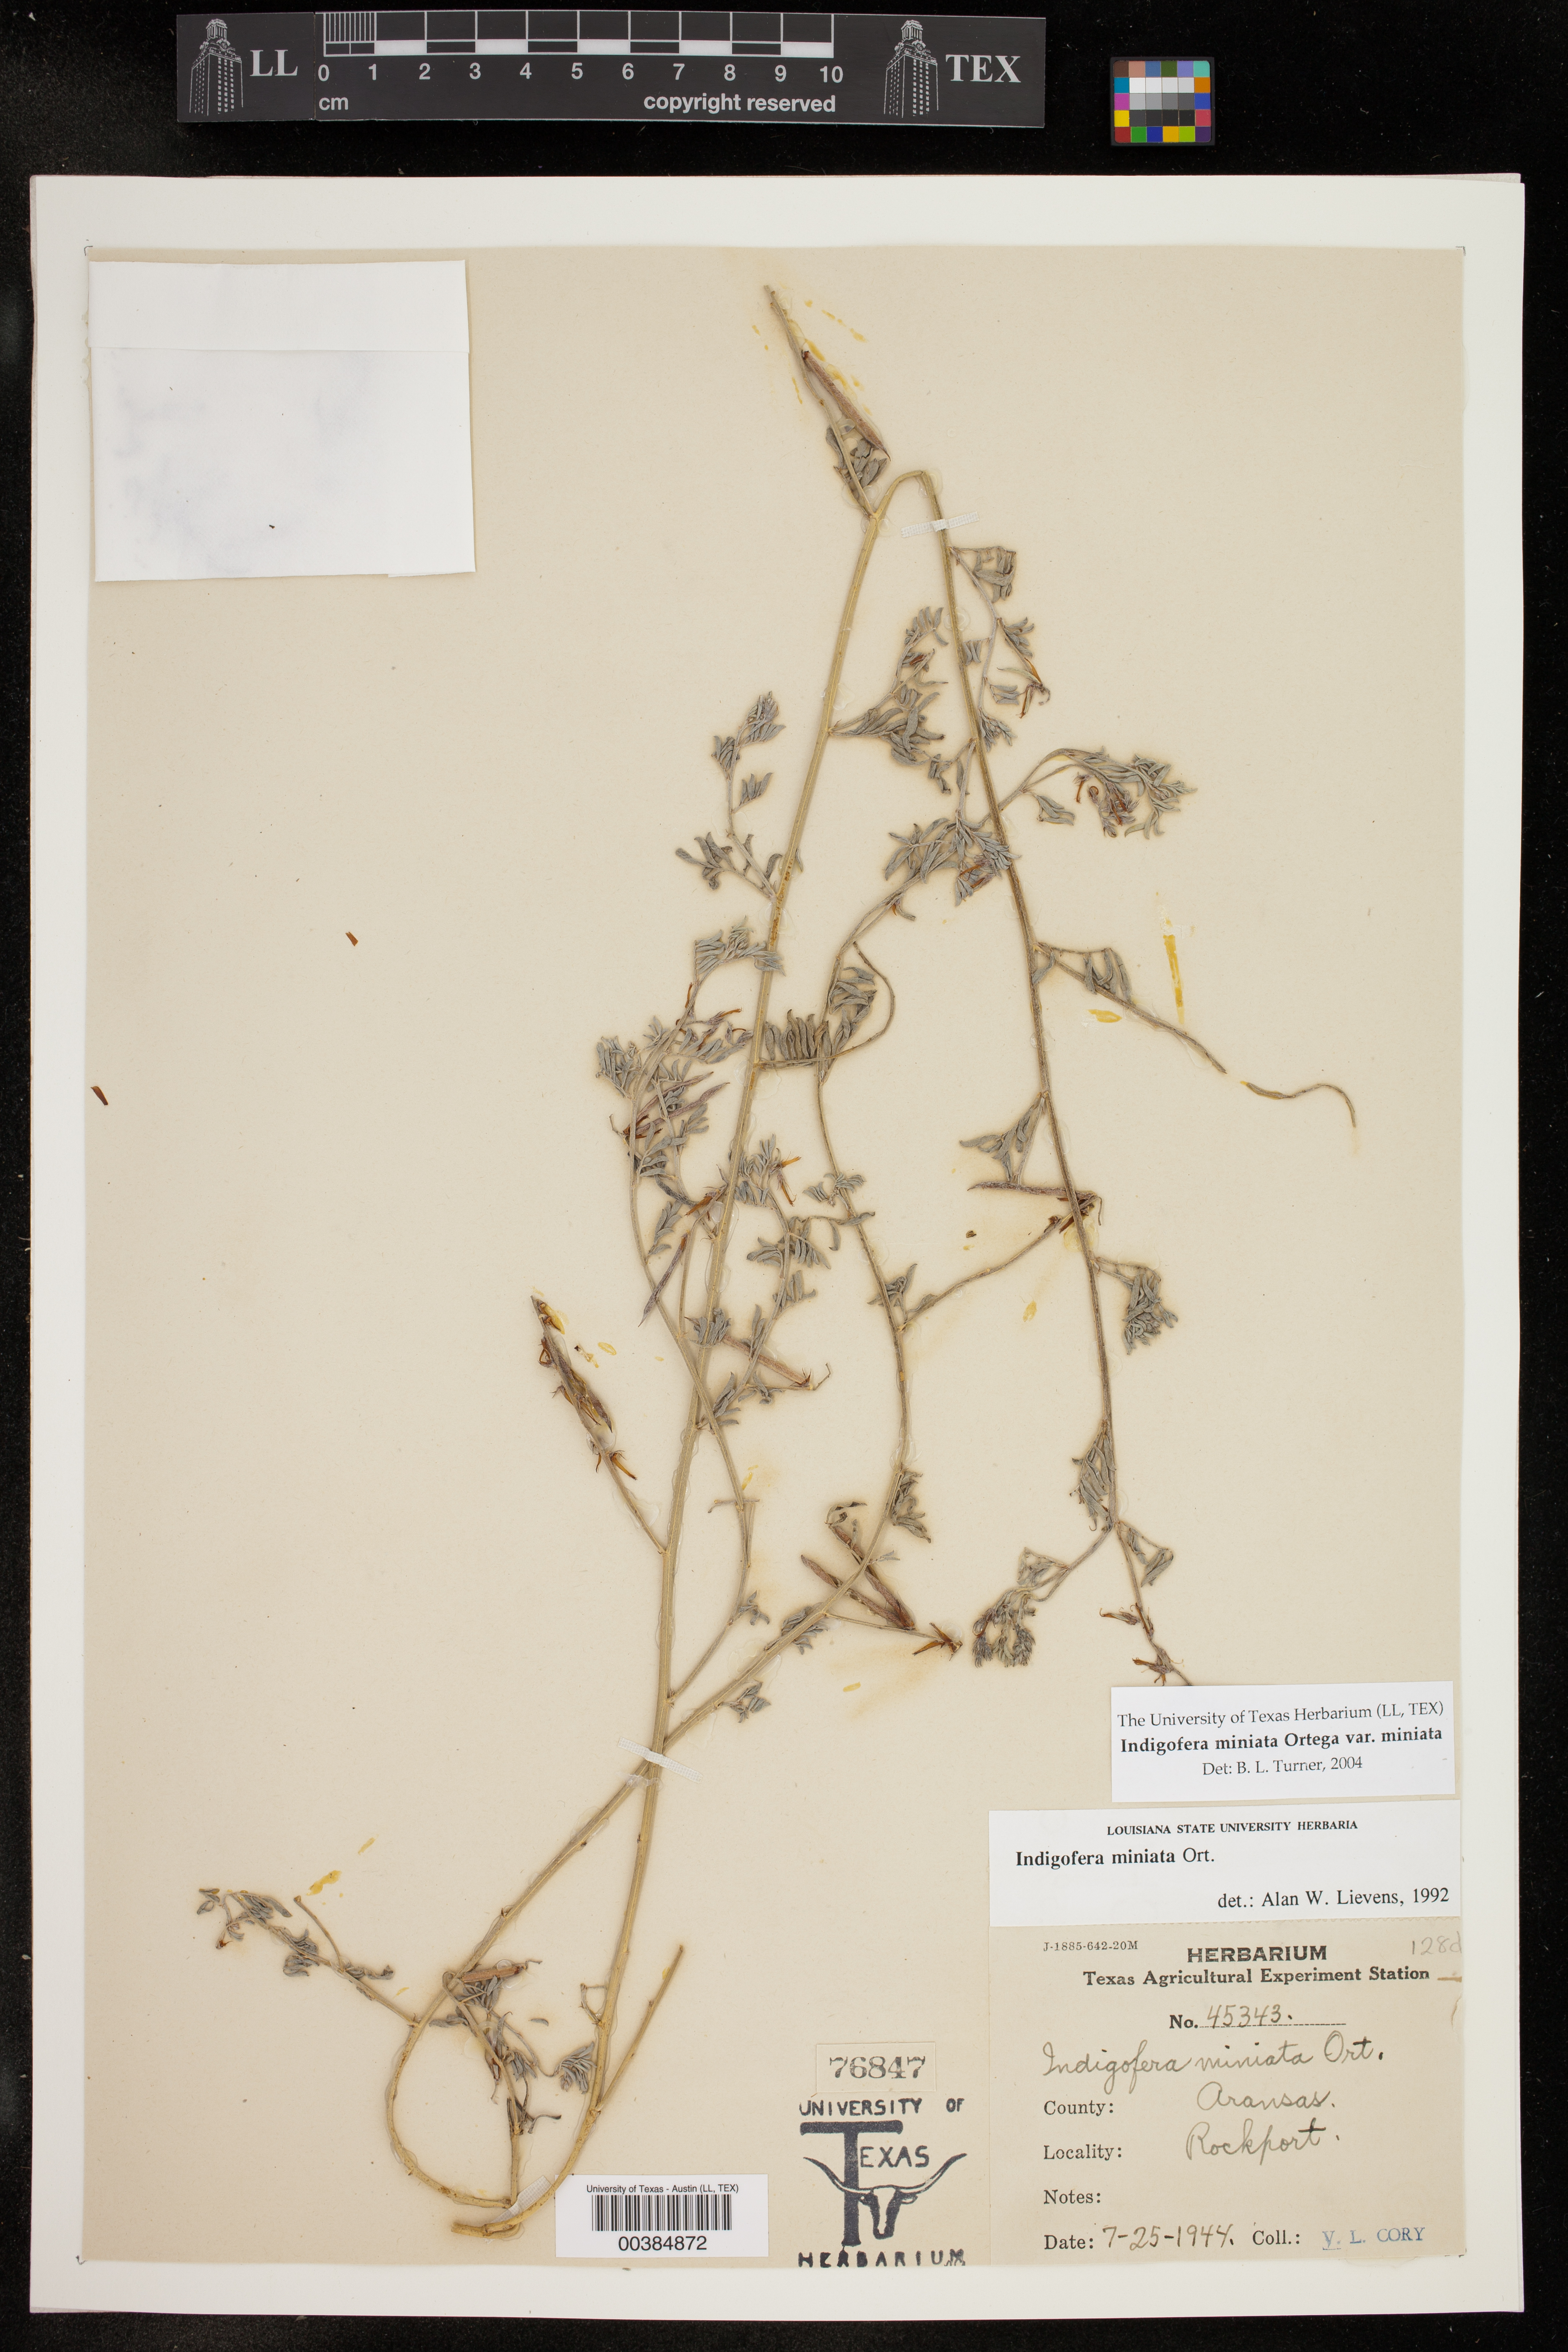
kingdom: Plantae
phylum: Tracheophyta
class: Magnoliopsida
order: Fabales
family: Fabaceae
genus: Indigofera
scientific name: Indigofera miniata
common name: Coast indigo
